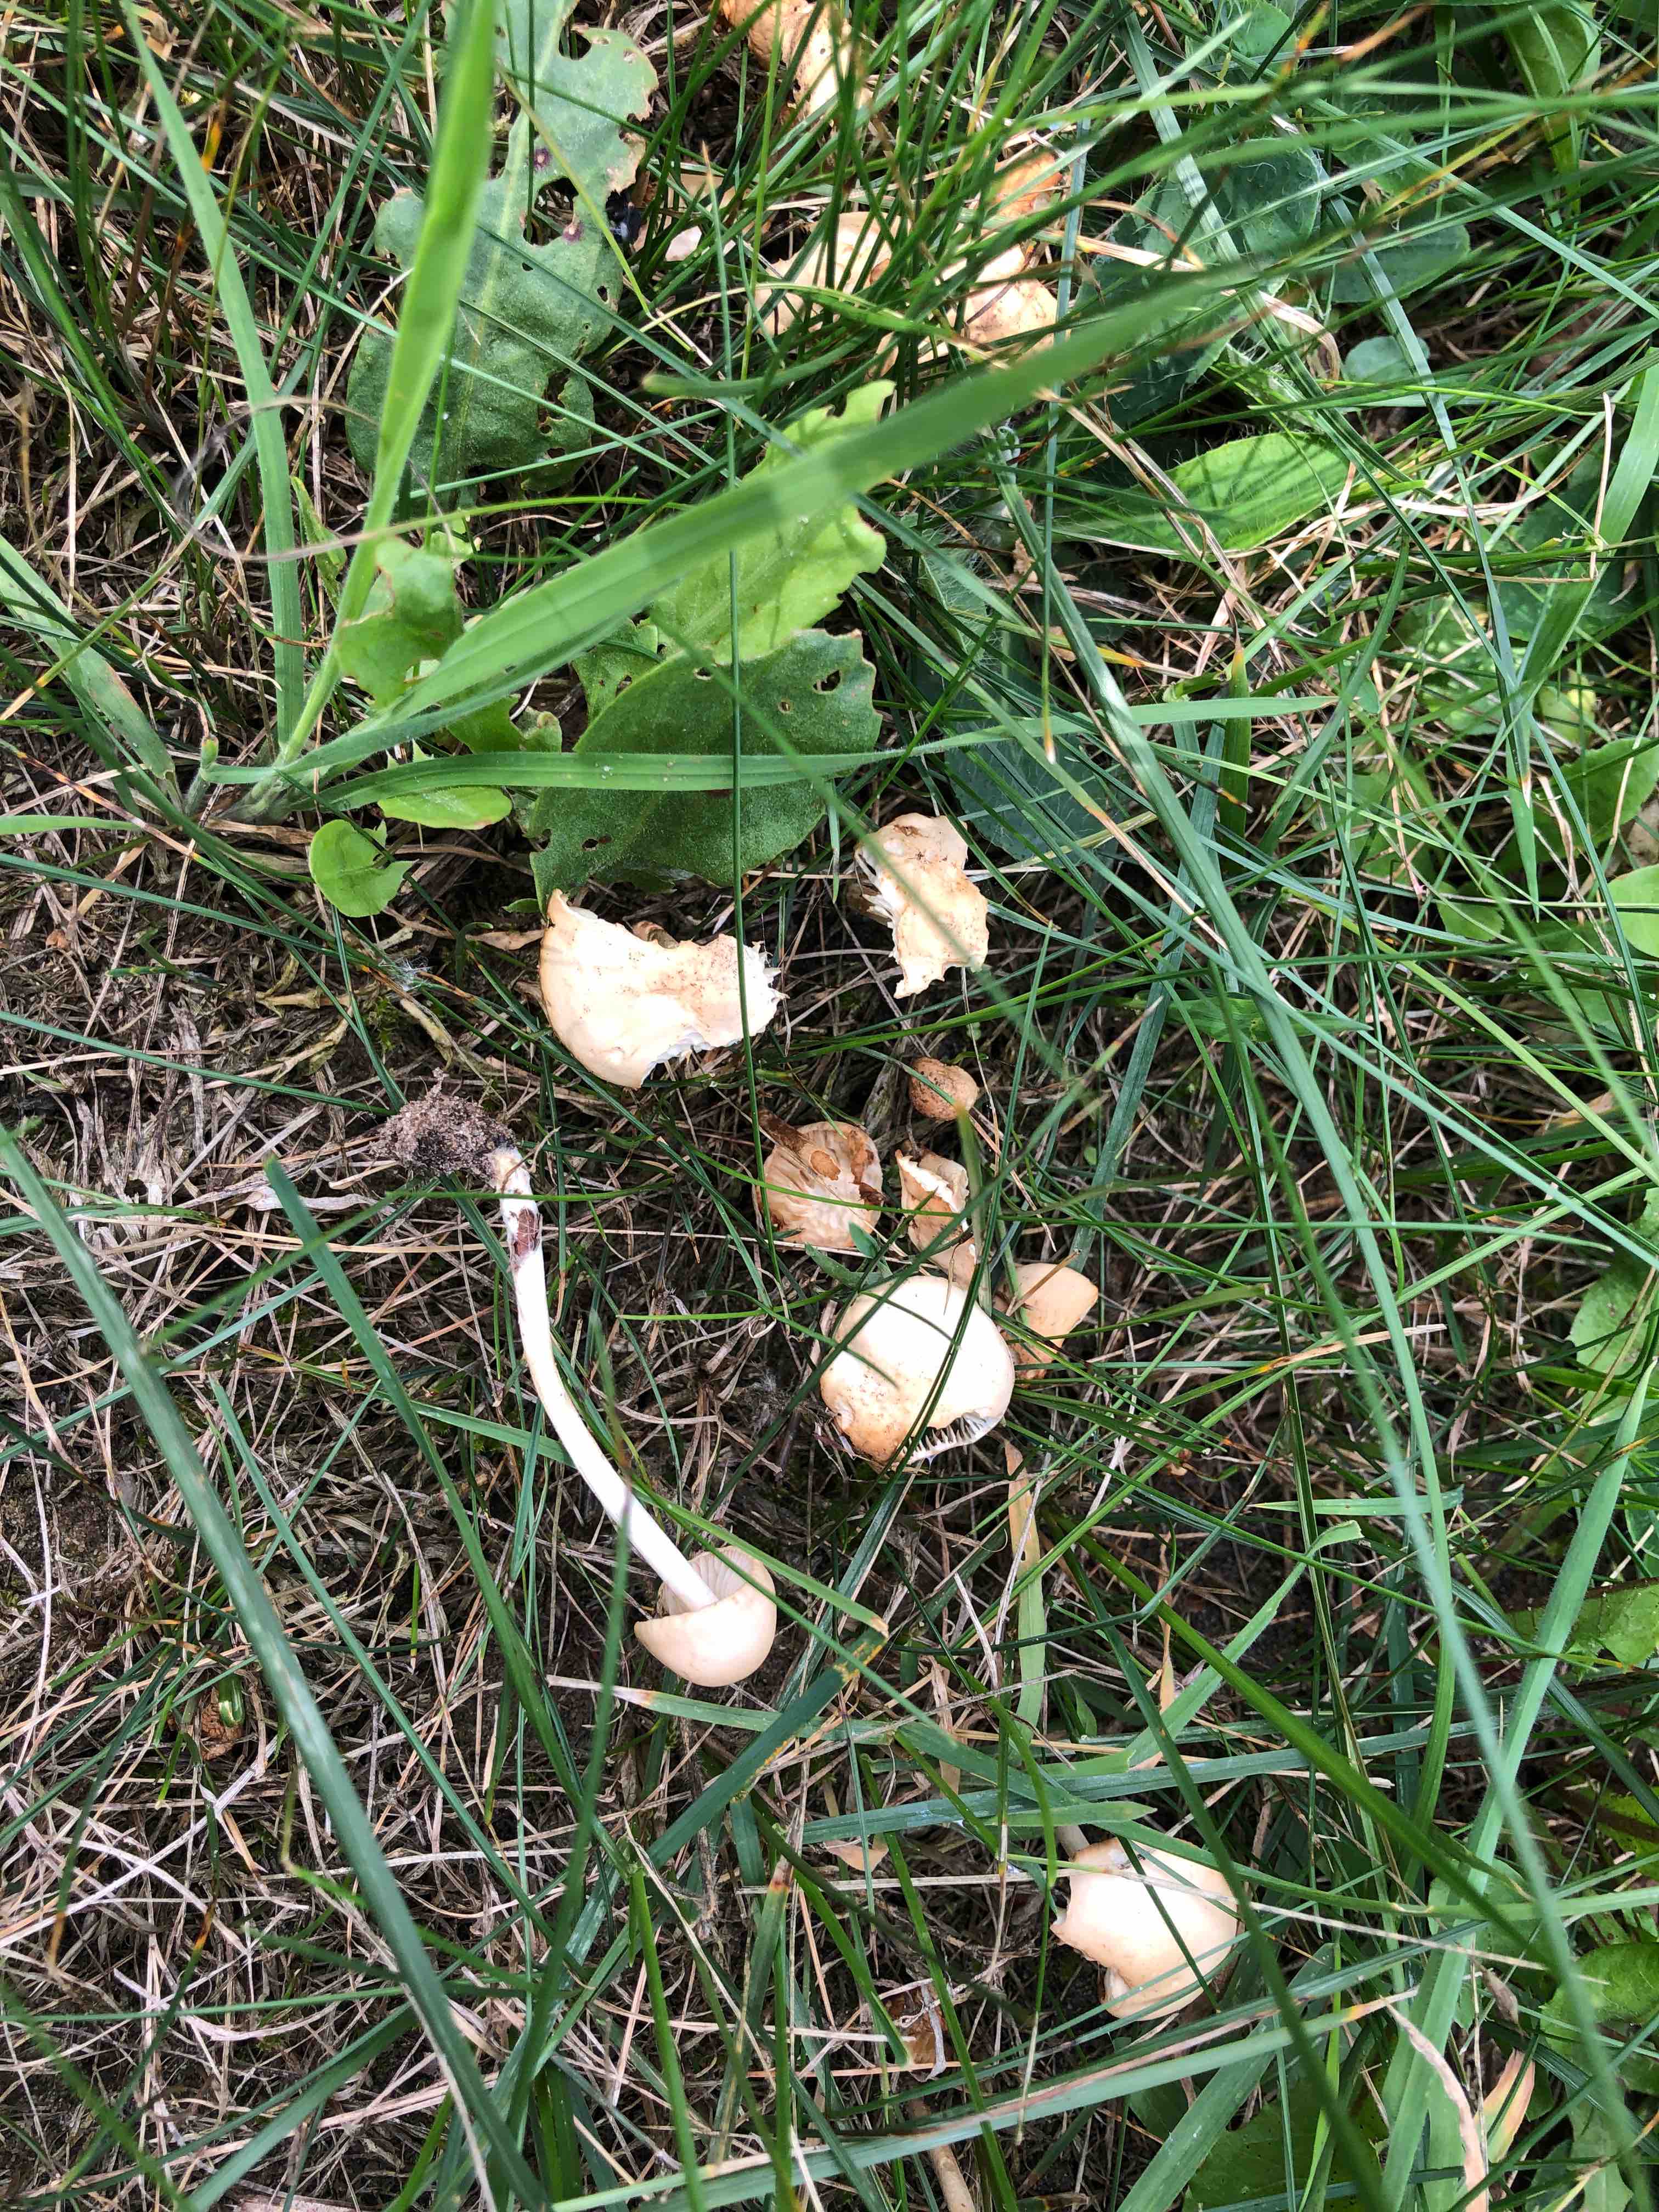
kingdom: Fungi
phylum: Basidiomycota
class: Agaricomycetes
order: Agaricales
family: Marasmiaceae
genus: Marasmius
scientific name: Marasmius oreades
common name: elledans-bruskhat
